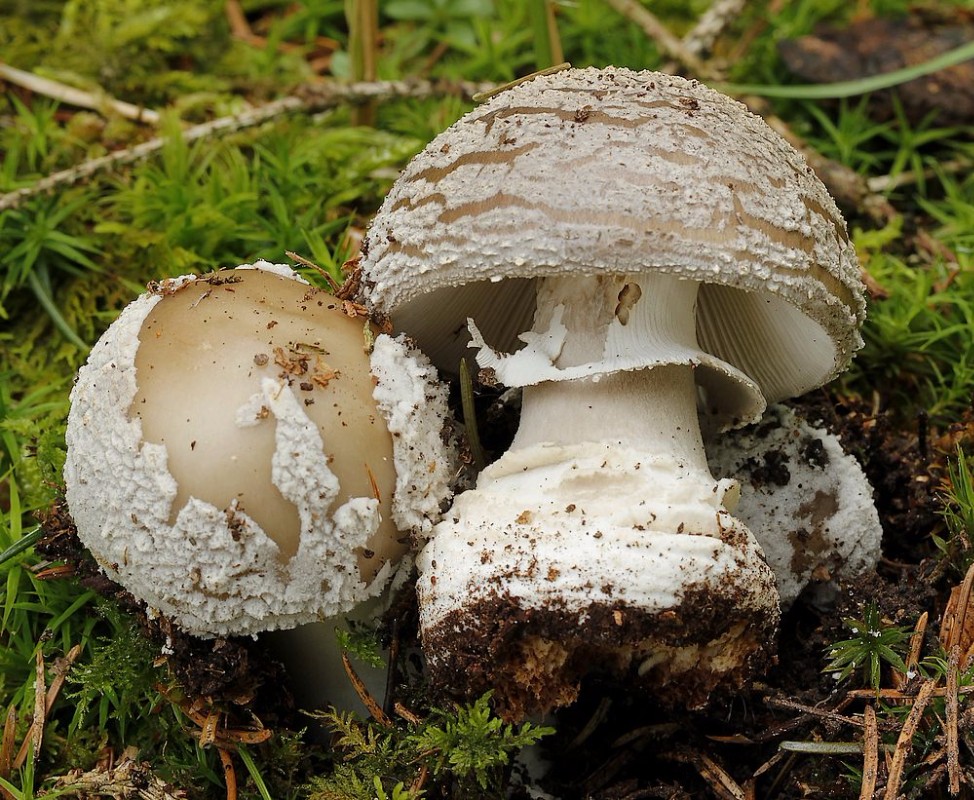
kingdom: Fungi
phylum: Basidiomycota
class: Agaricomycetes
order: Agaricales
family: Amanitaceae
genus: Amanita
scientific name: Amanita
